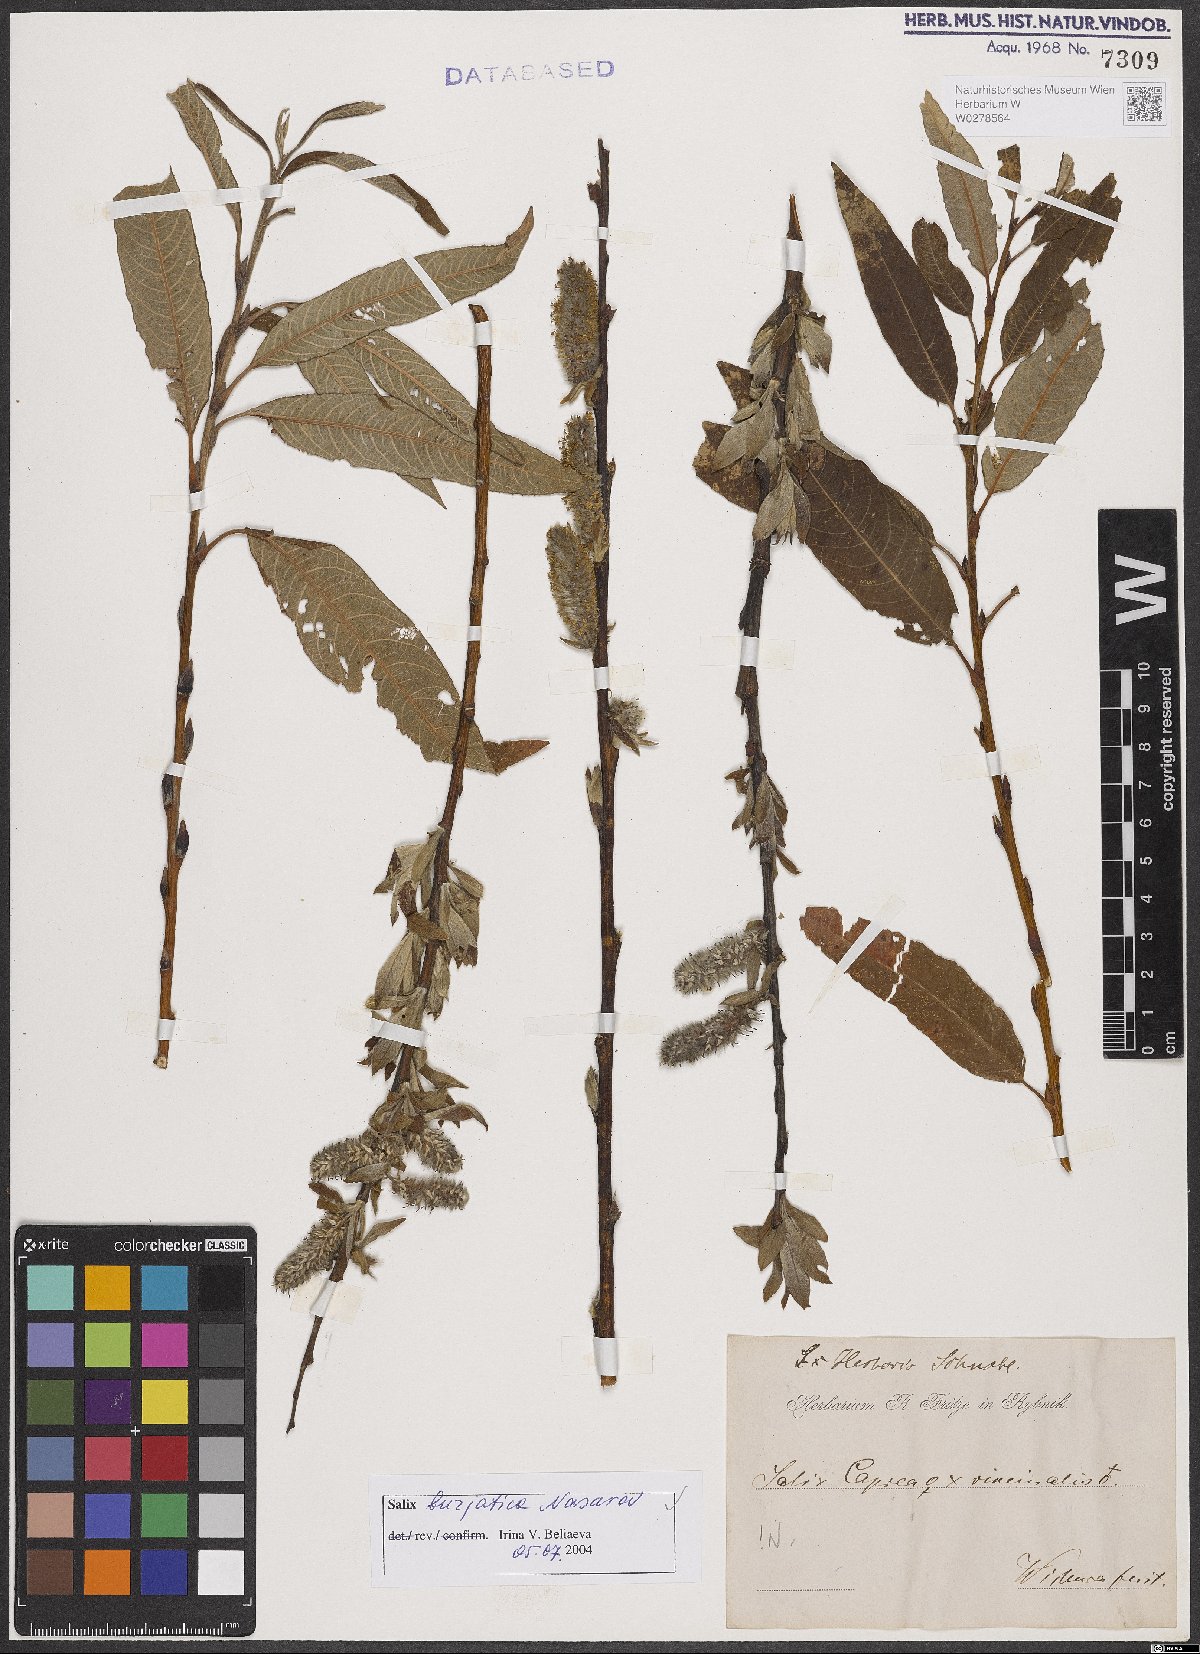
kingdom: Plantae
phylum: Tracheophyta
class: Magnoliopsida
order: Malpighiales
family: Salicaceae
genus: Salix
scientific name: Salix gmelinii
